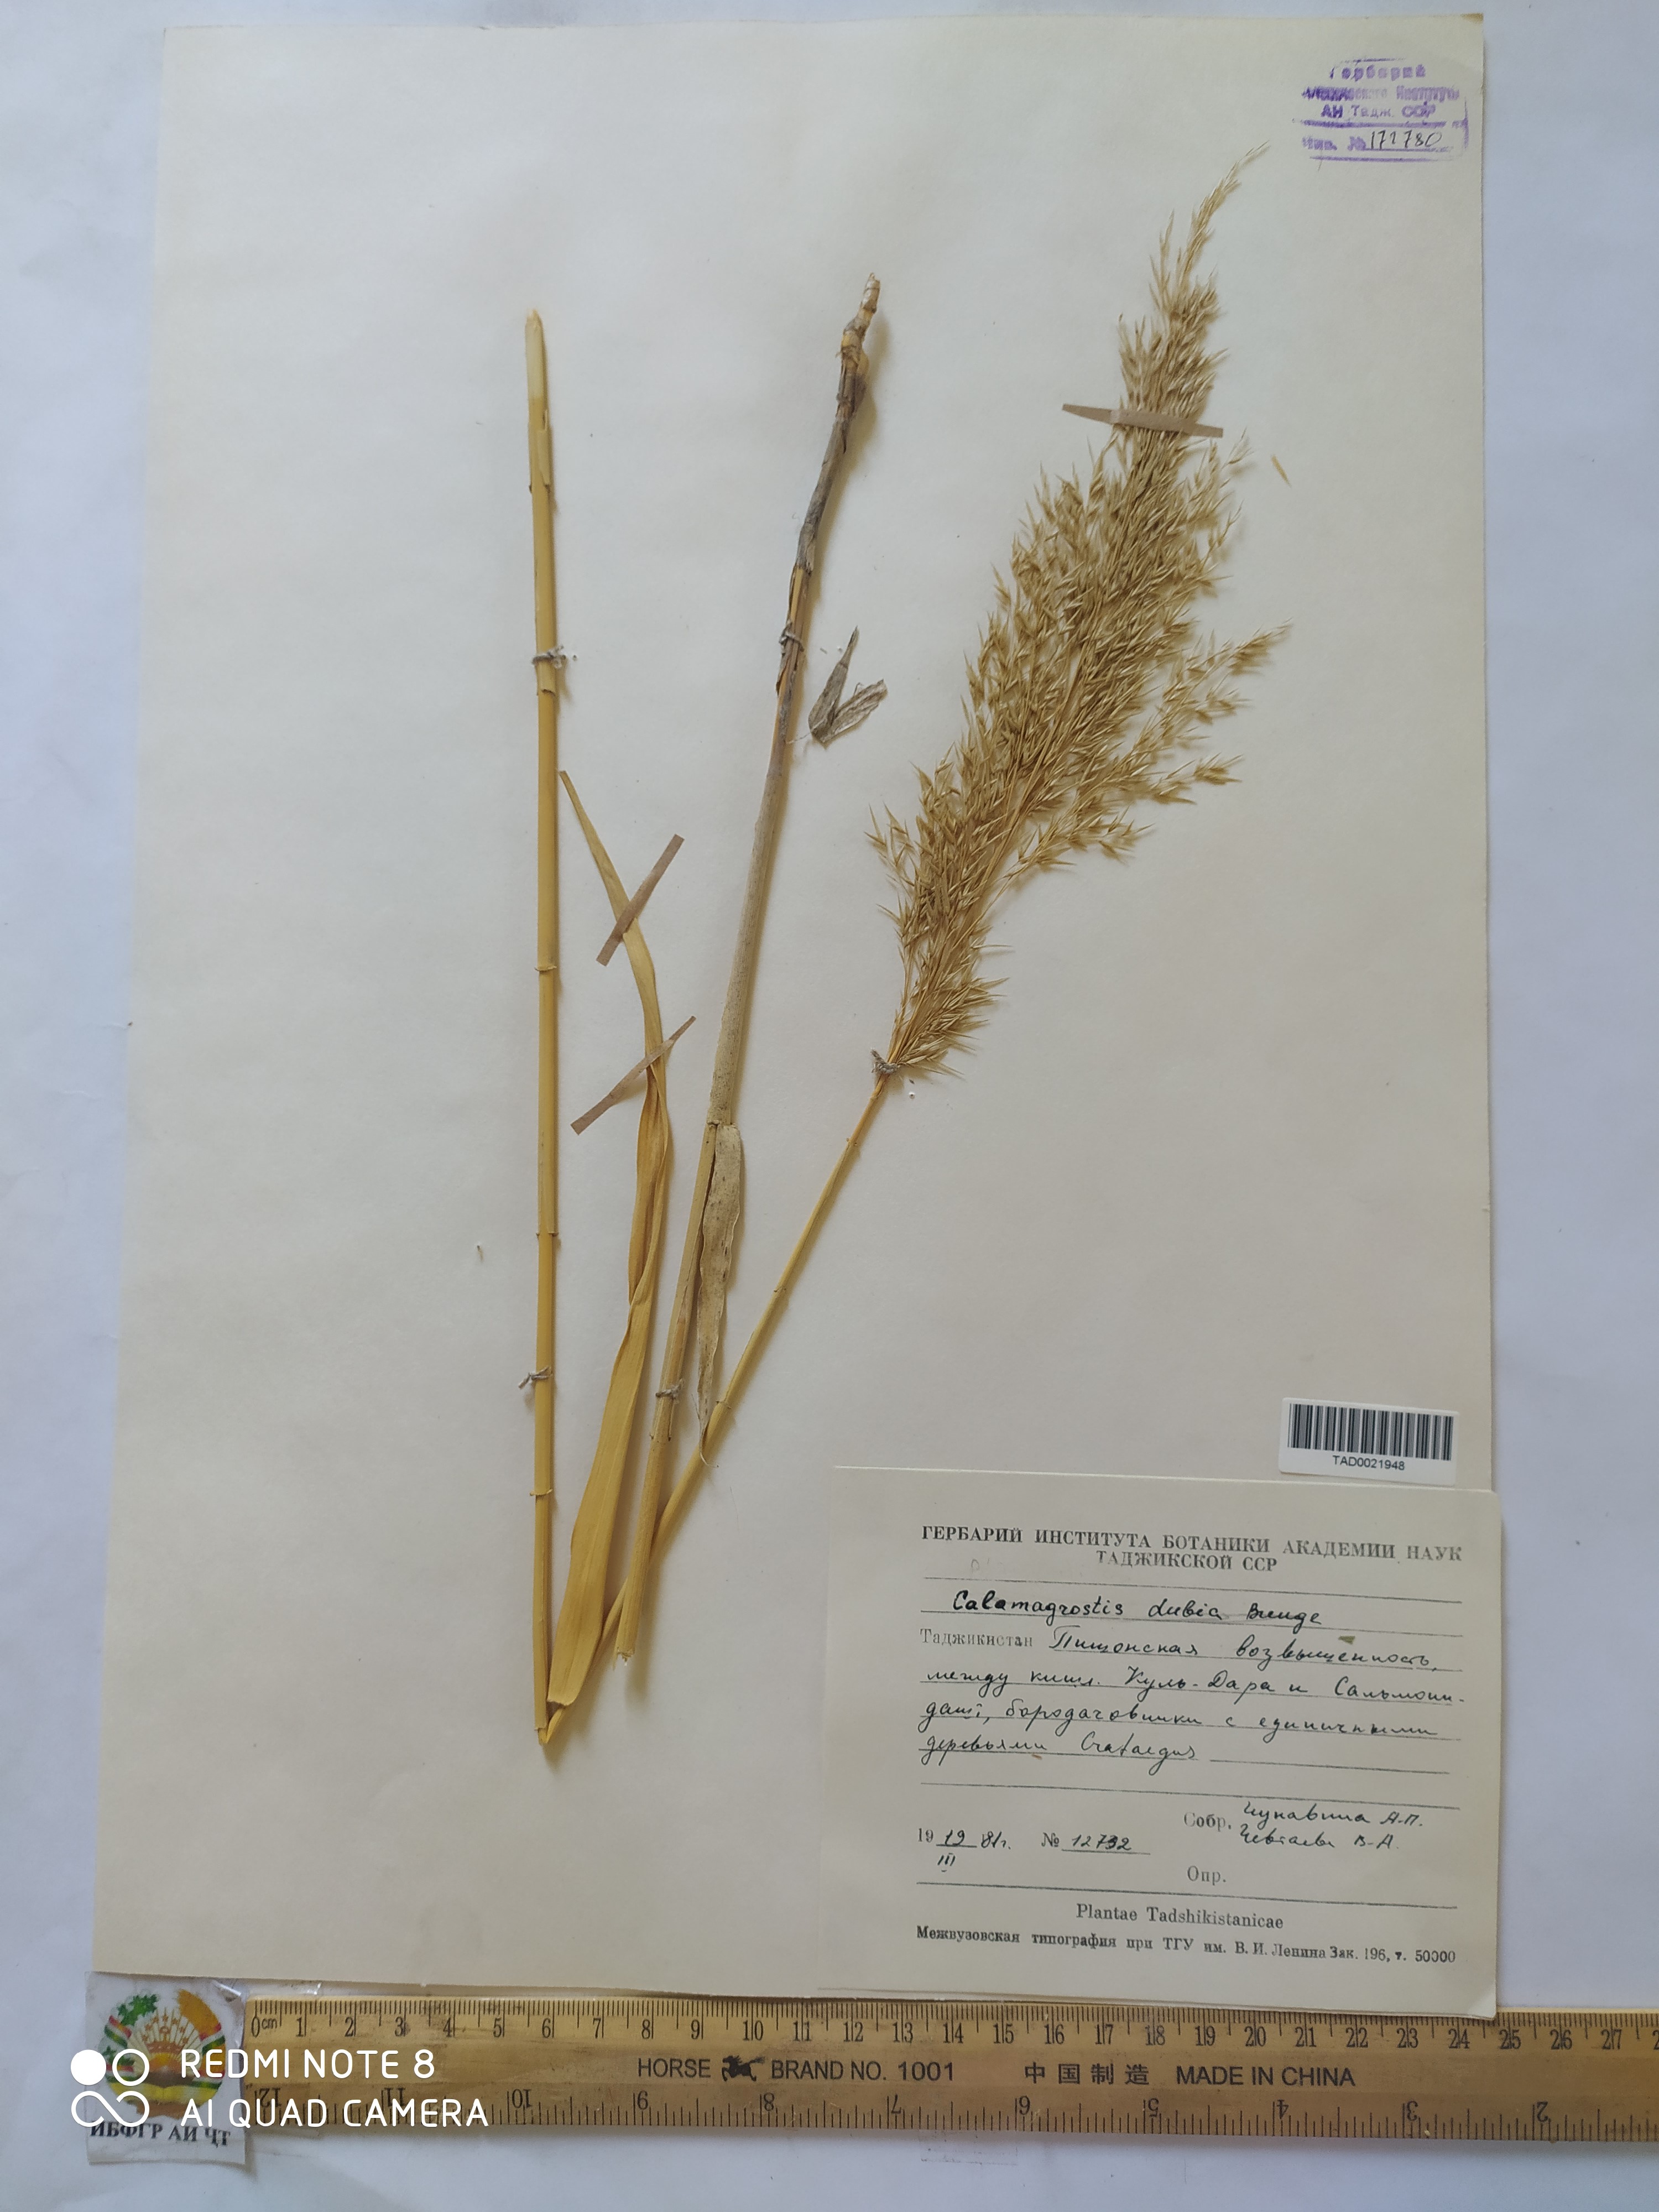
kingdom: Plantae
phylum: Tracheophyta
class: Liliopsida
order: Poales
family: Poaceae
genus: Calamagrostis
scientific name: Calamagrostis pseudophragmites
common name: Coastal small-reed
